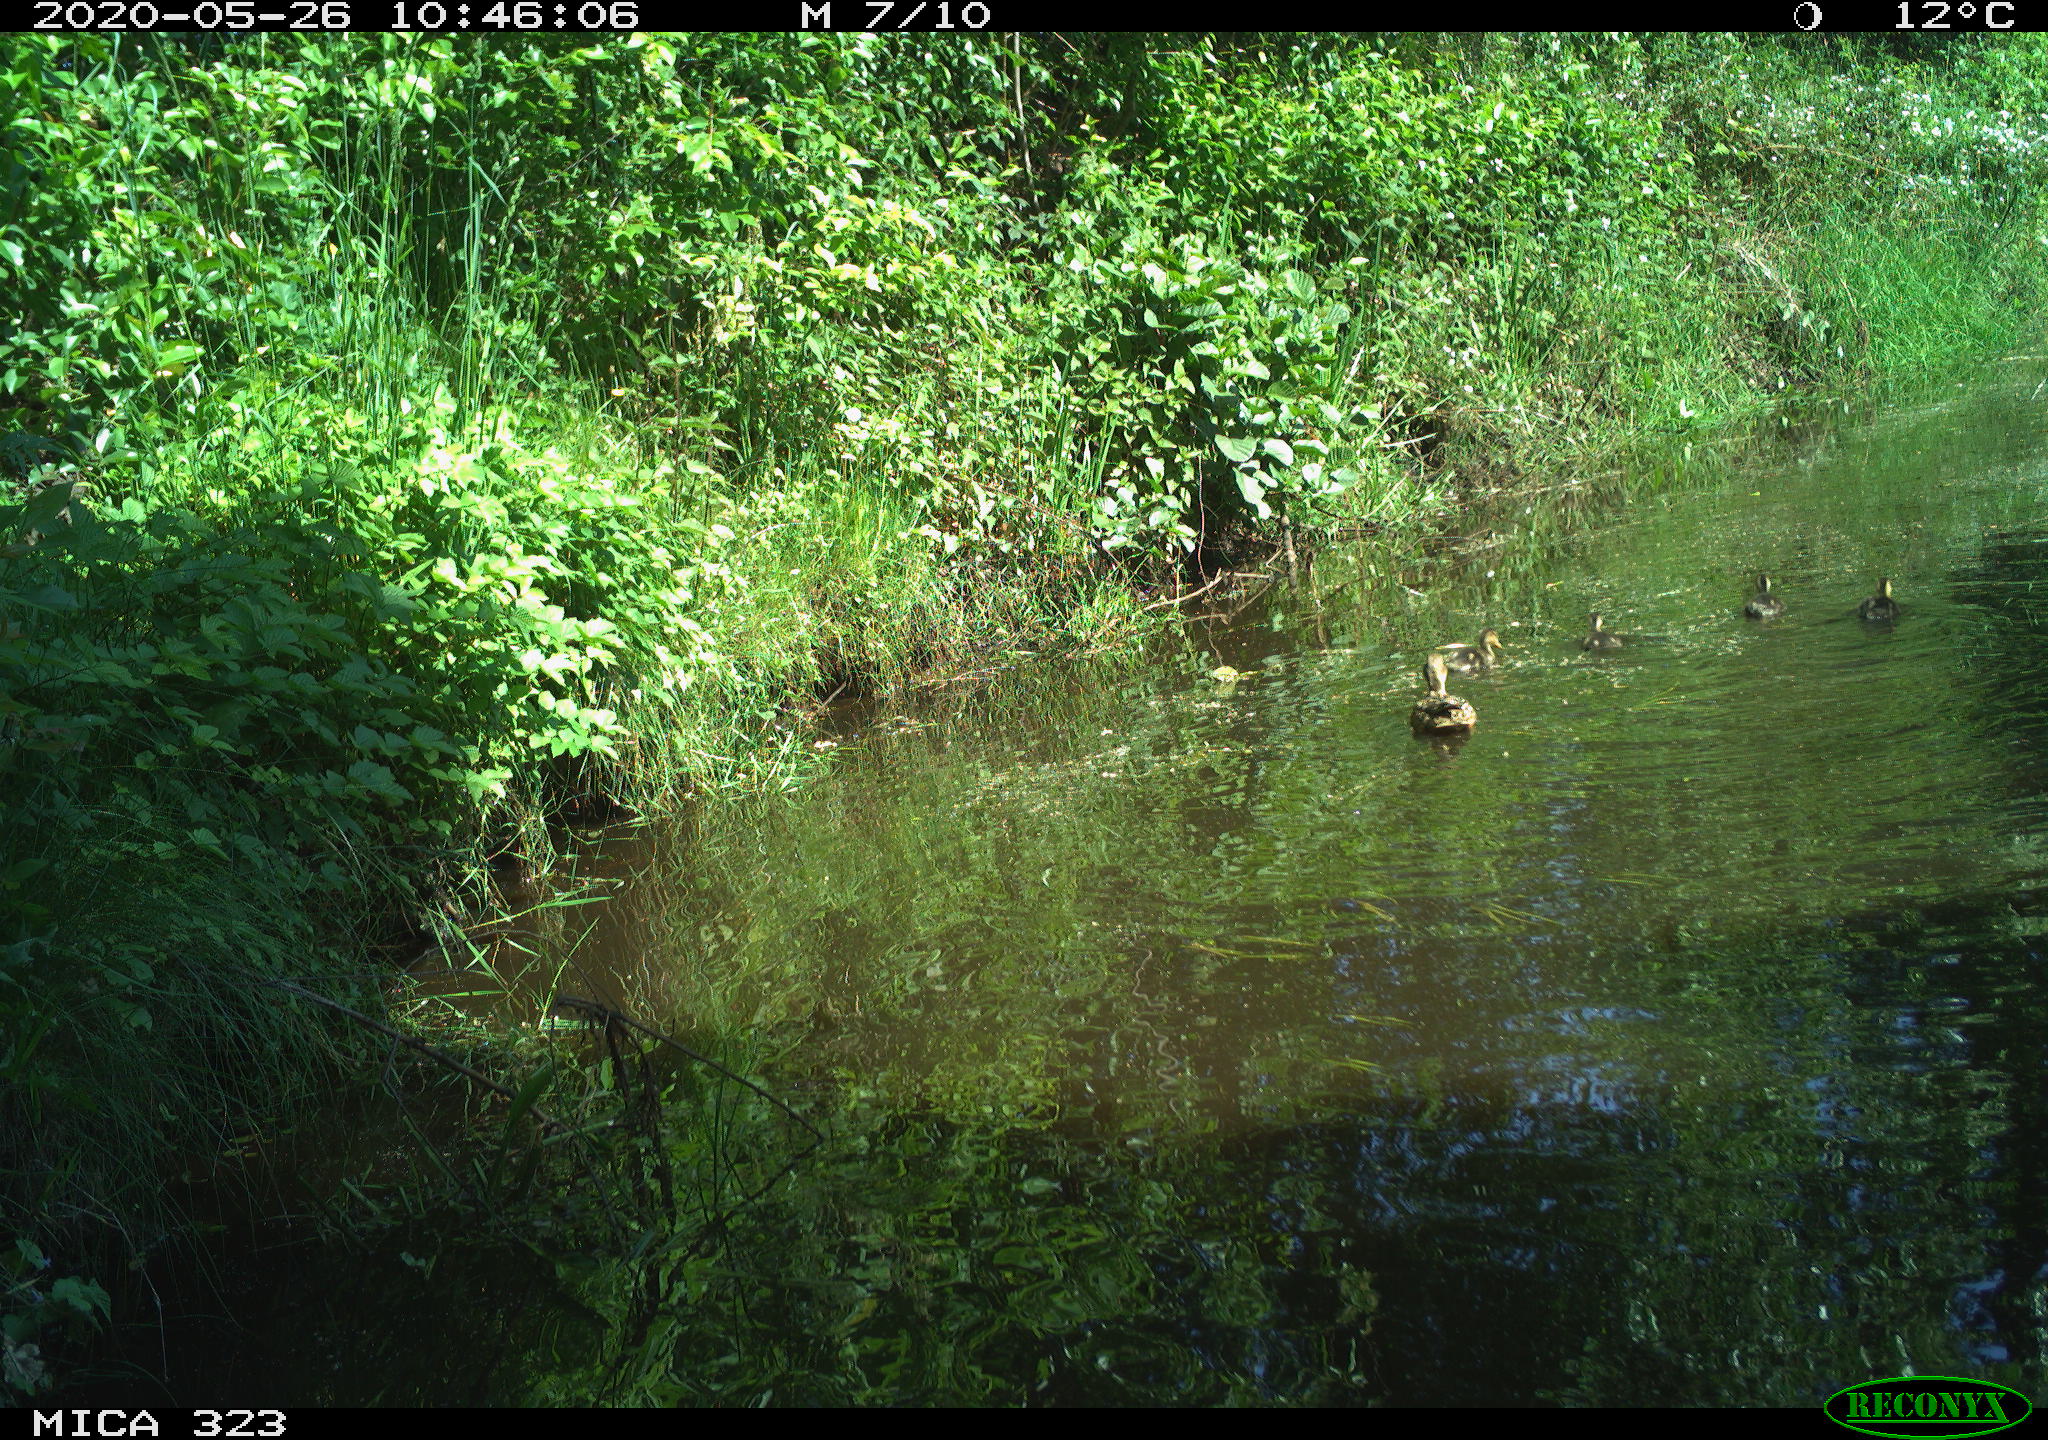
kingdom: Animalia
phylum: Chordata
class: Aves
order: Anseriformes
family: Anatidae
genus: Anas
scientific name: Anas platyrhynchos
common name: Mallard
